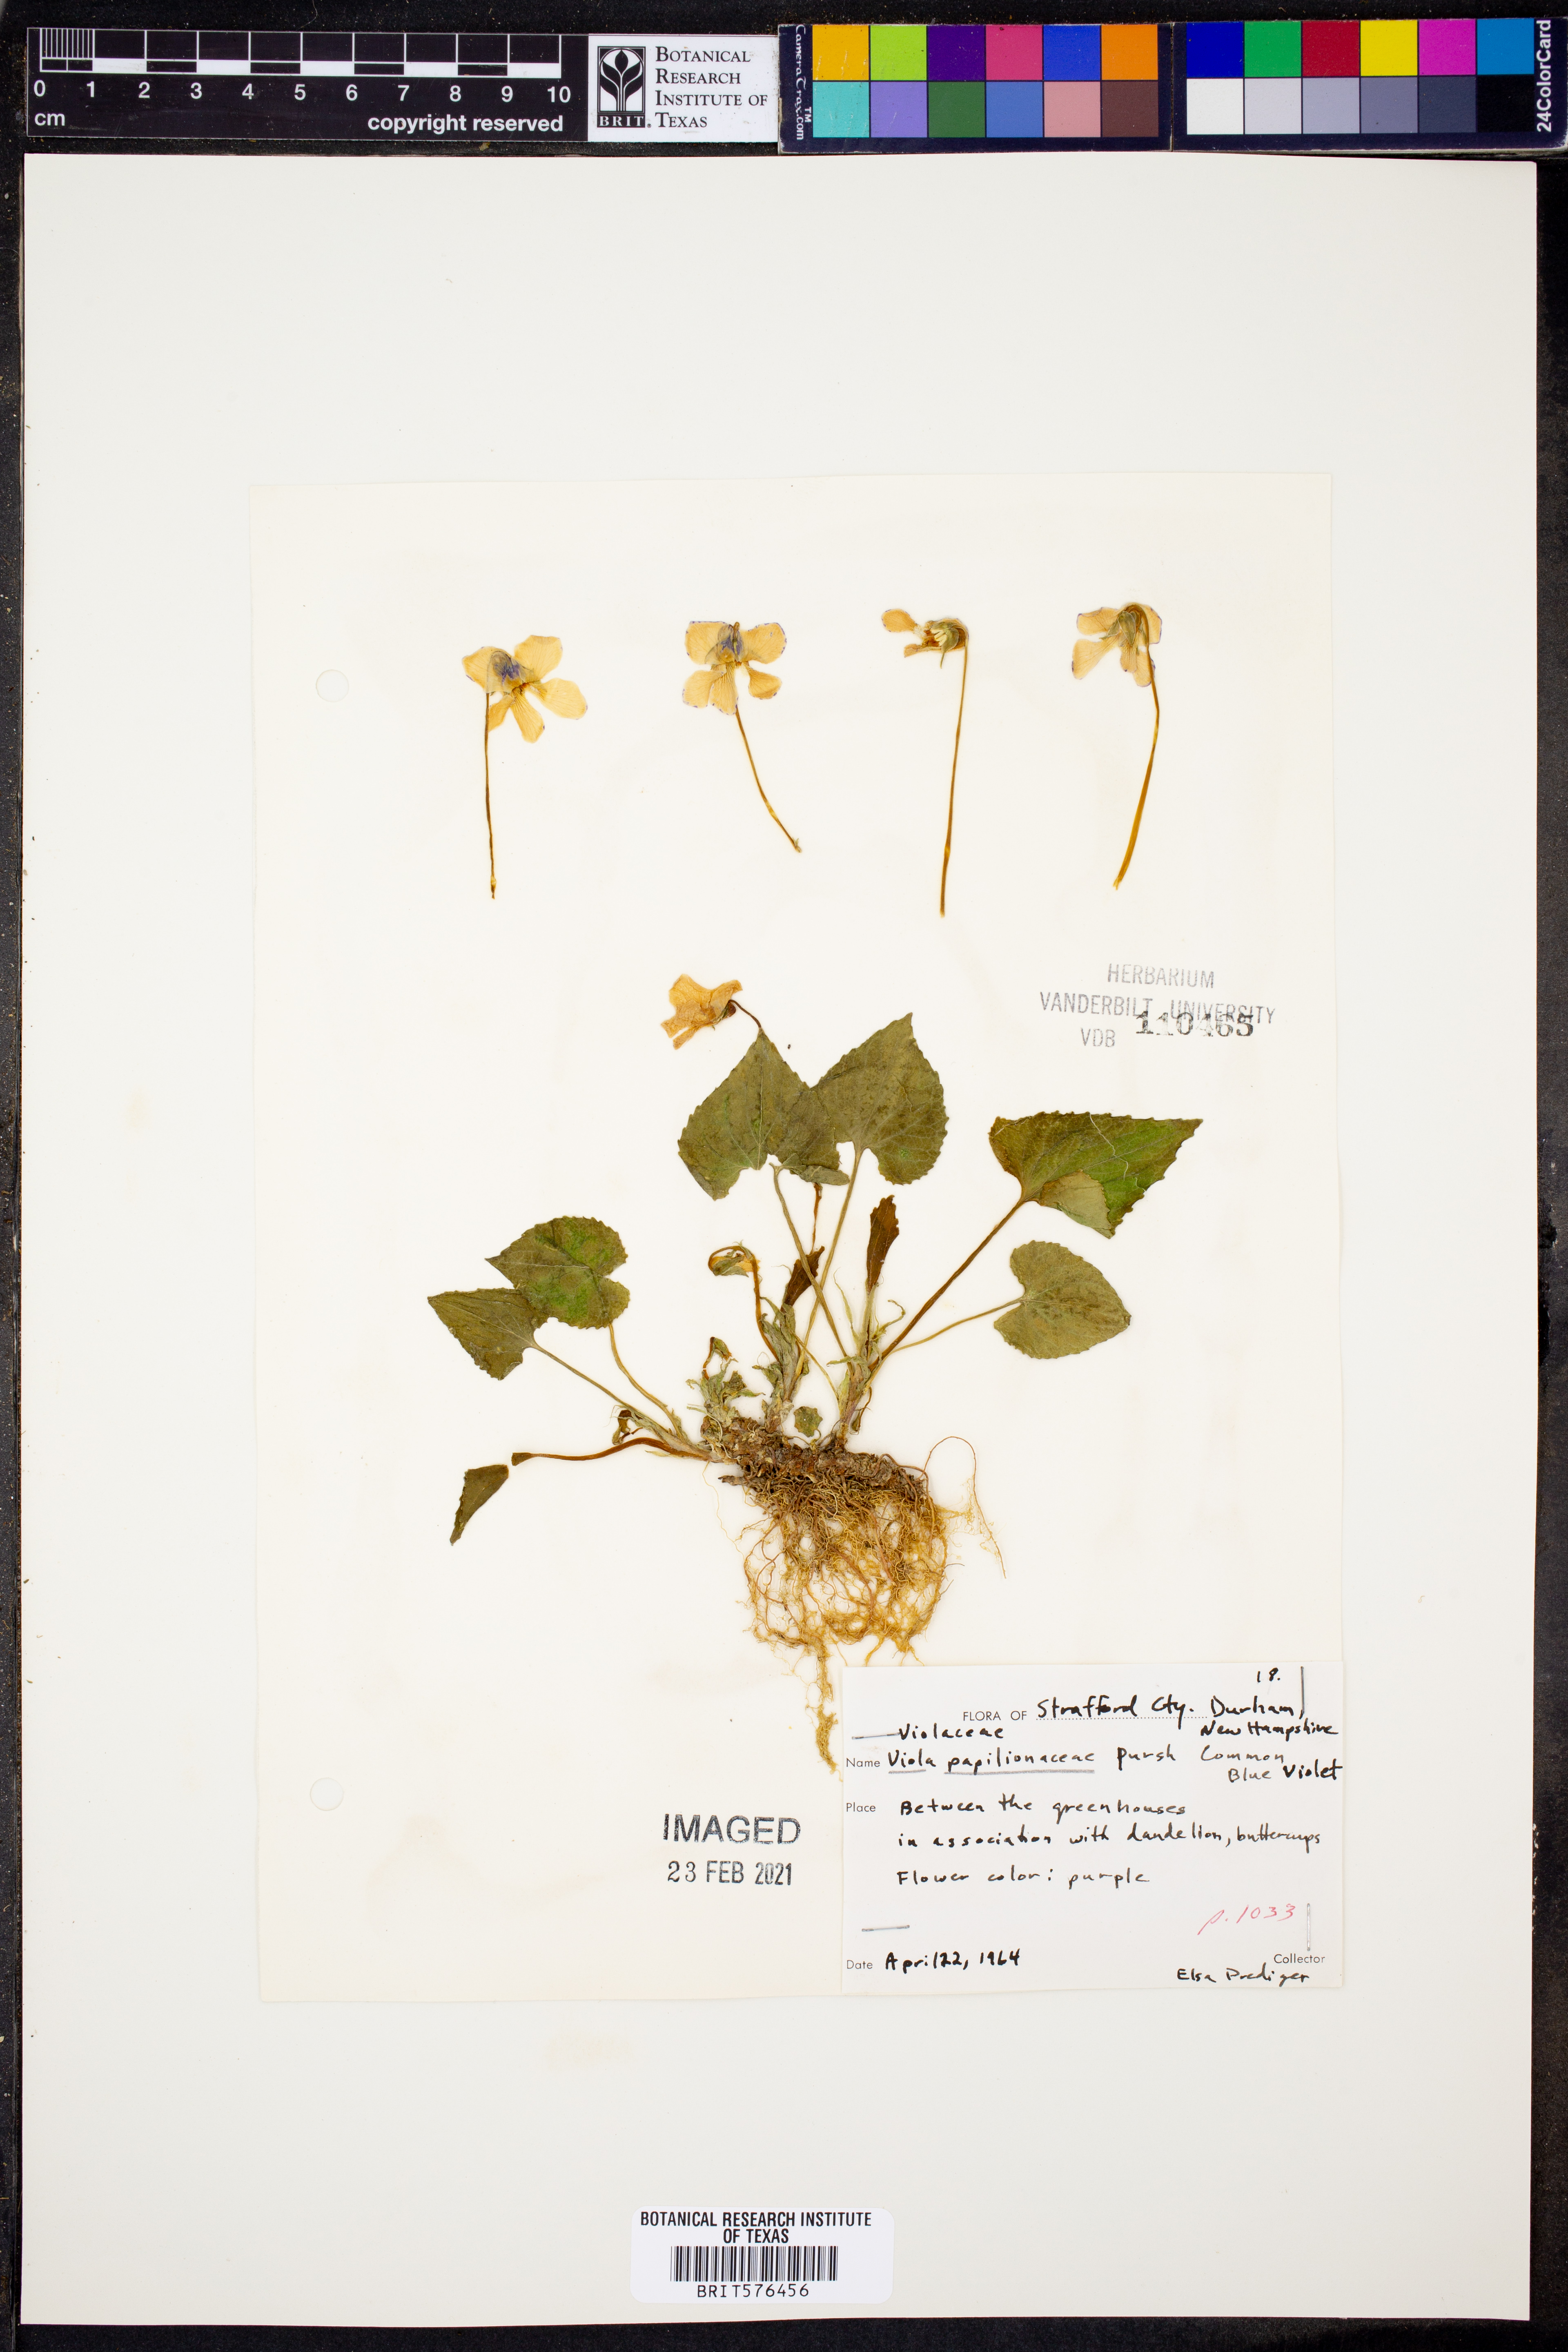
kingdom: Plantae
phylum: Tracheophyta
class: Magnoliopsida
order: Malpighiales
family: Violaceae
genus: Viola
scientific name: Viola sororia
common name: Dooryard violet
